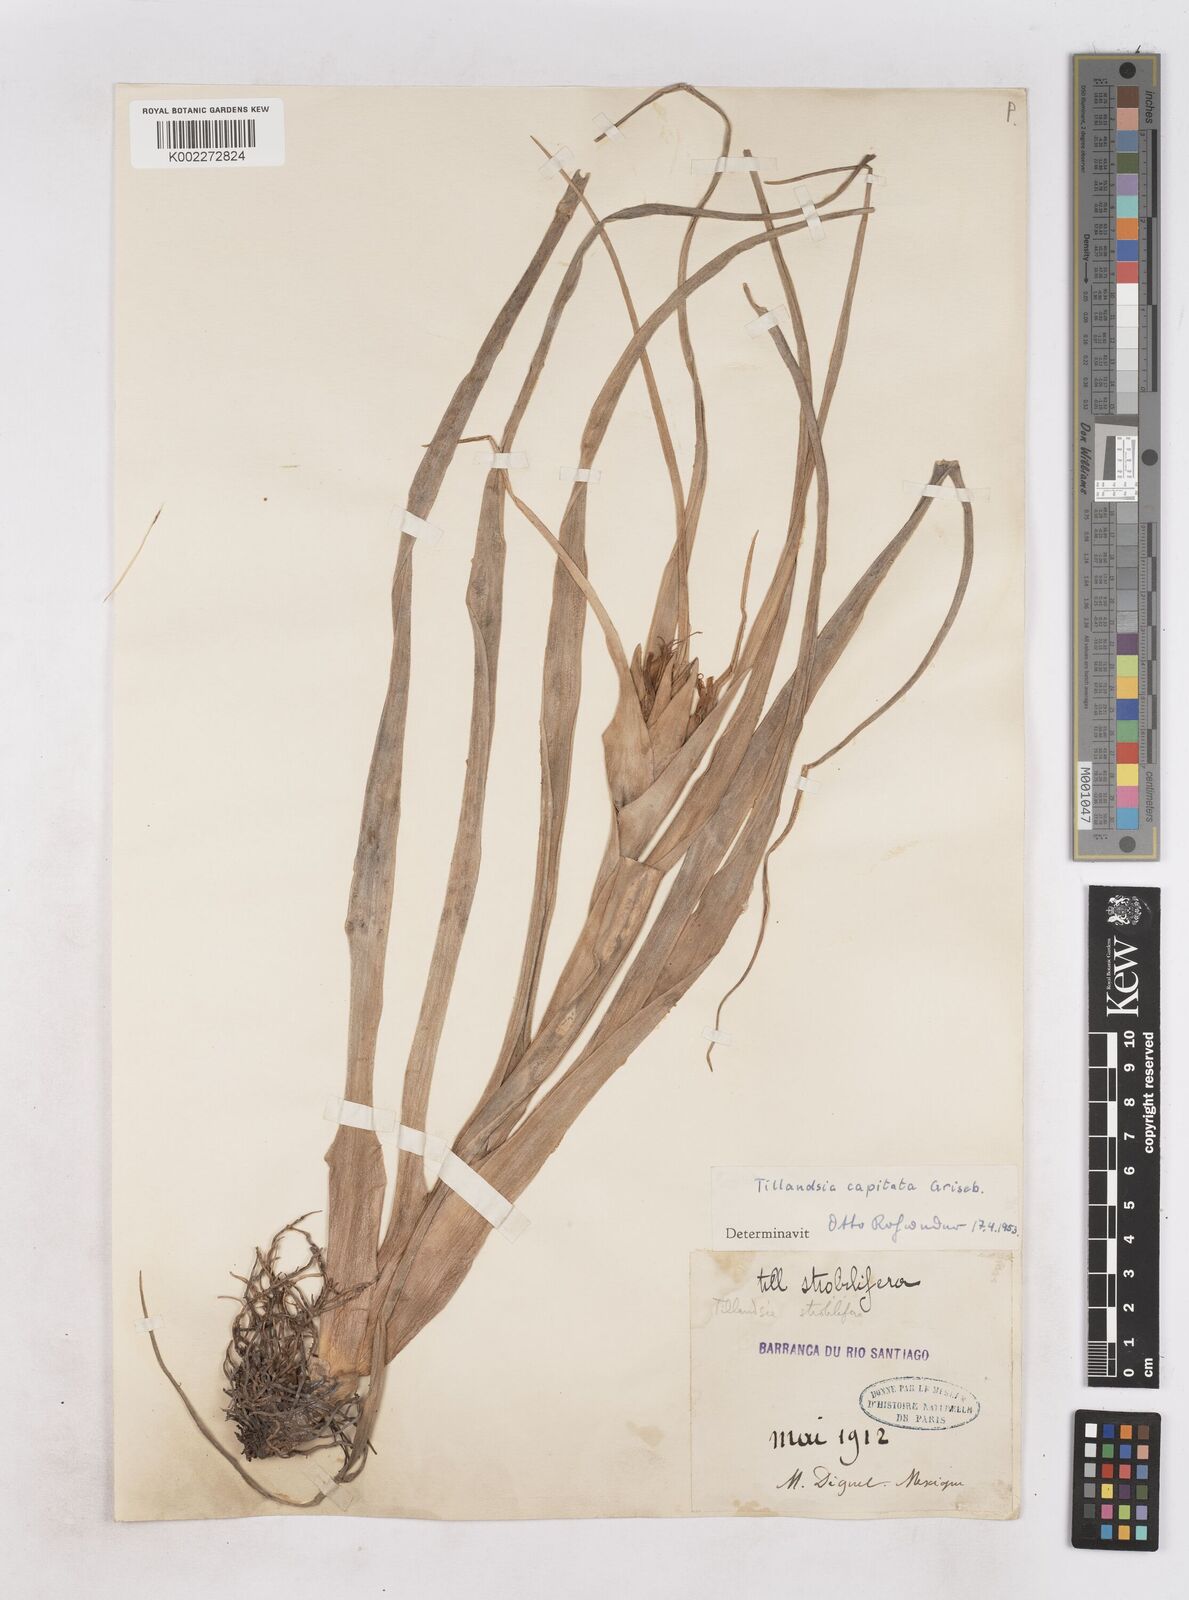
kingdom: Plantae
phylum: Tracheophyta
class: Liliopsida
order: Poales
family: Bromeliaceae
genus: Tillandsia
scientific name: Tillandsia
